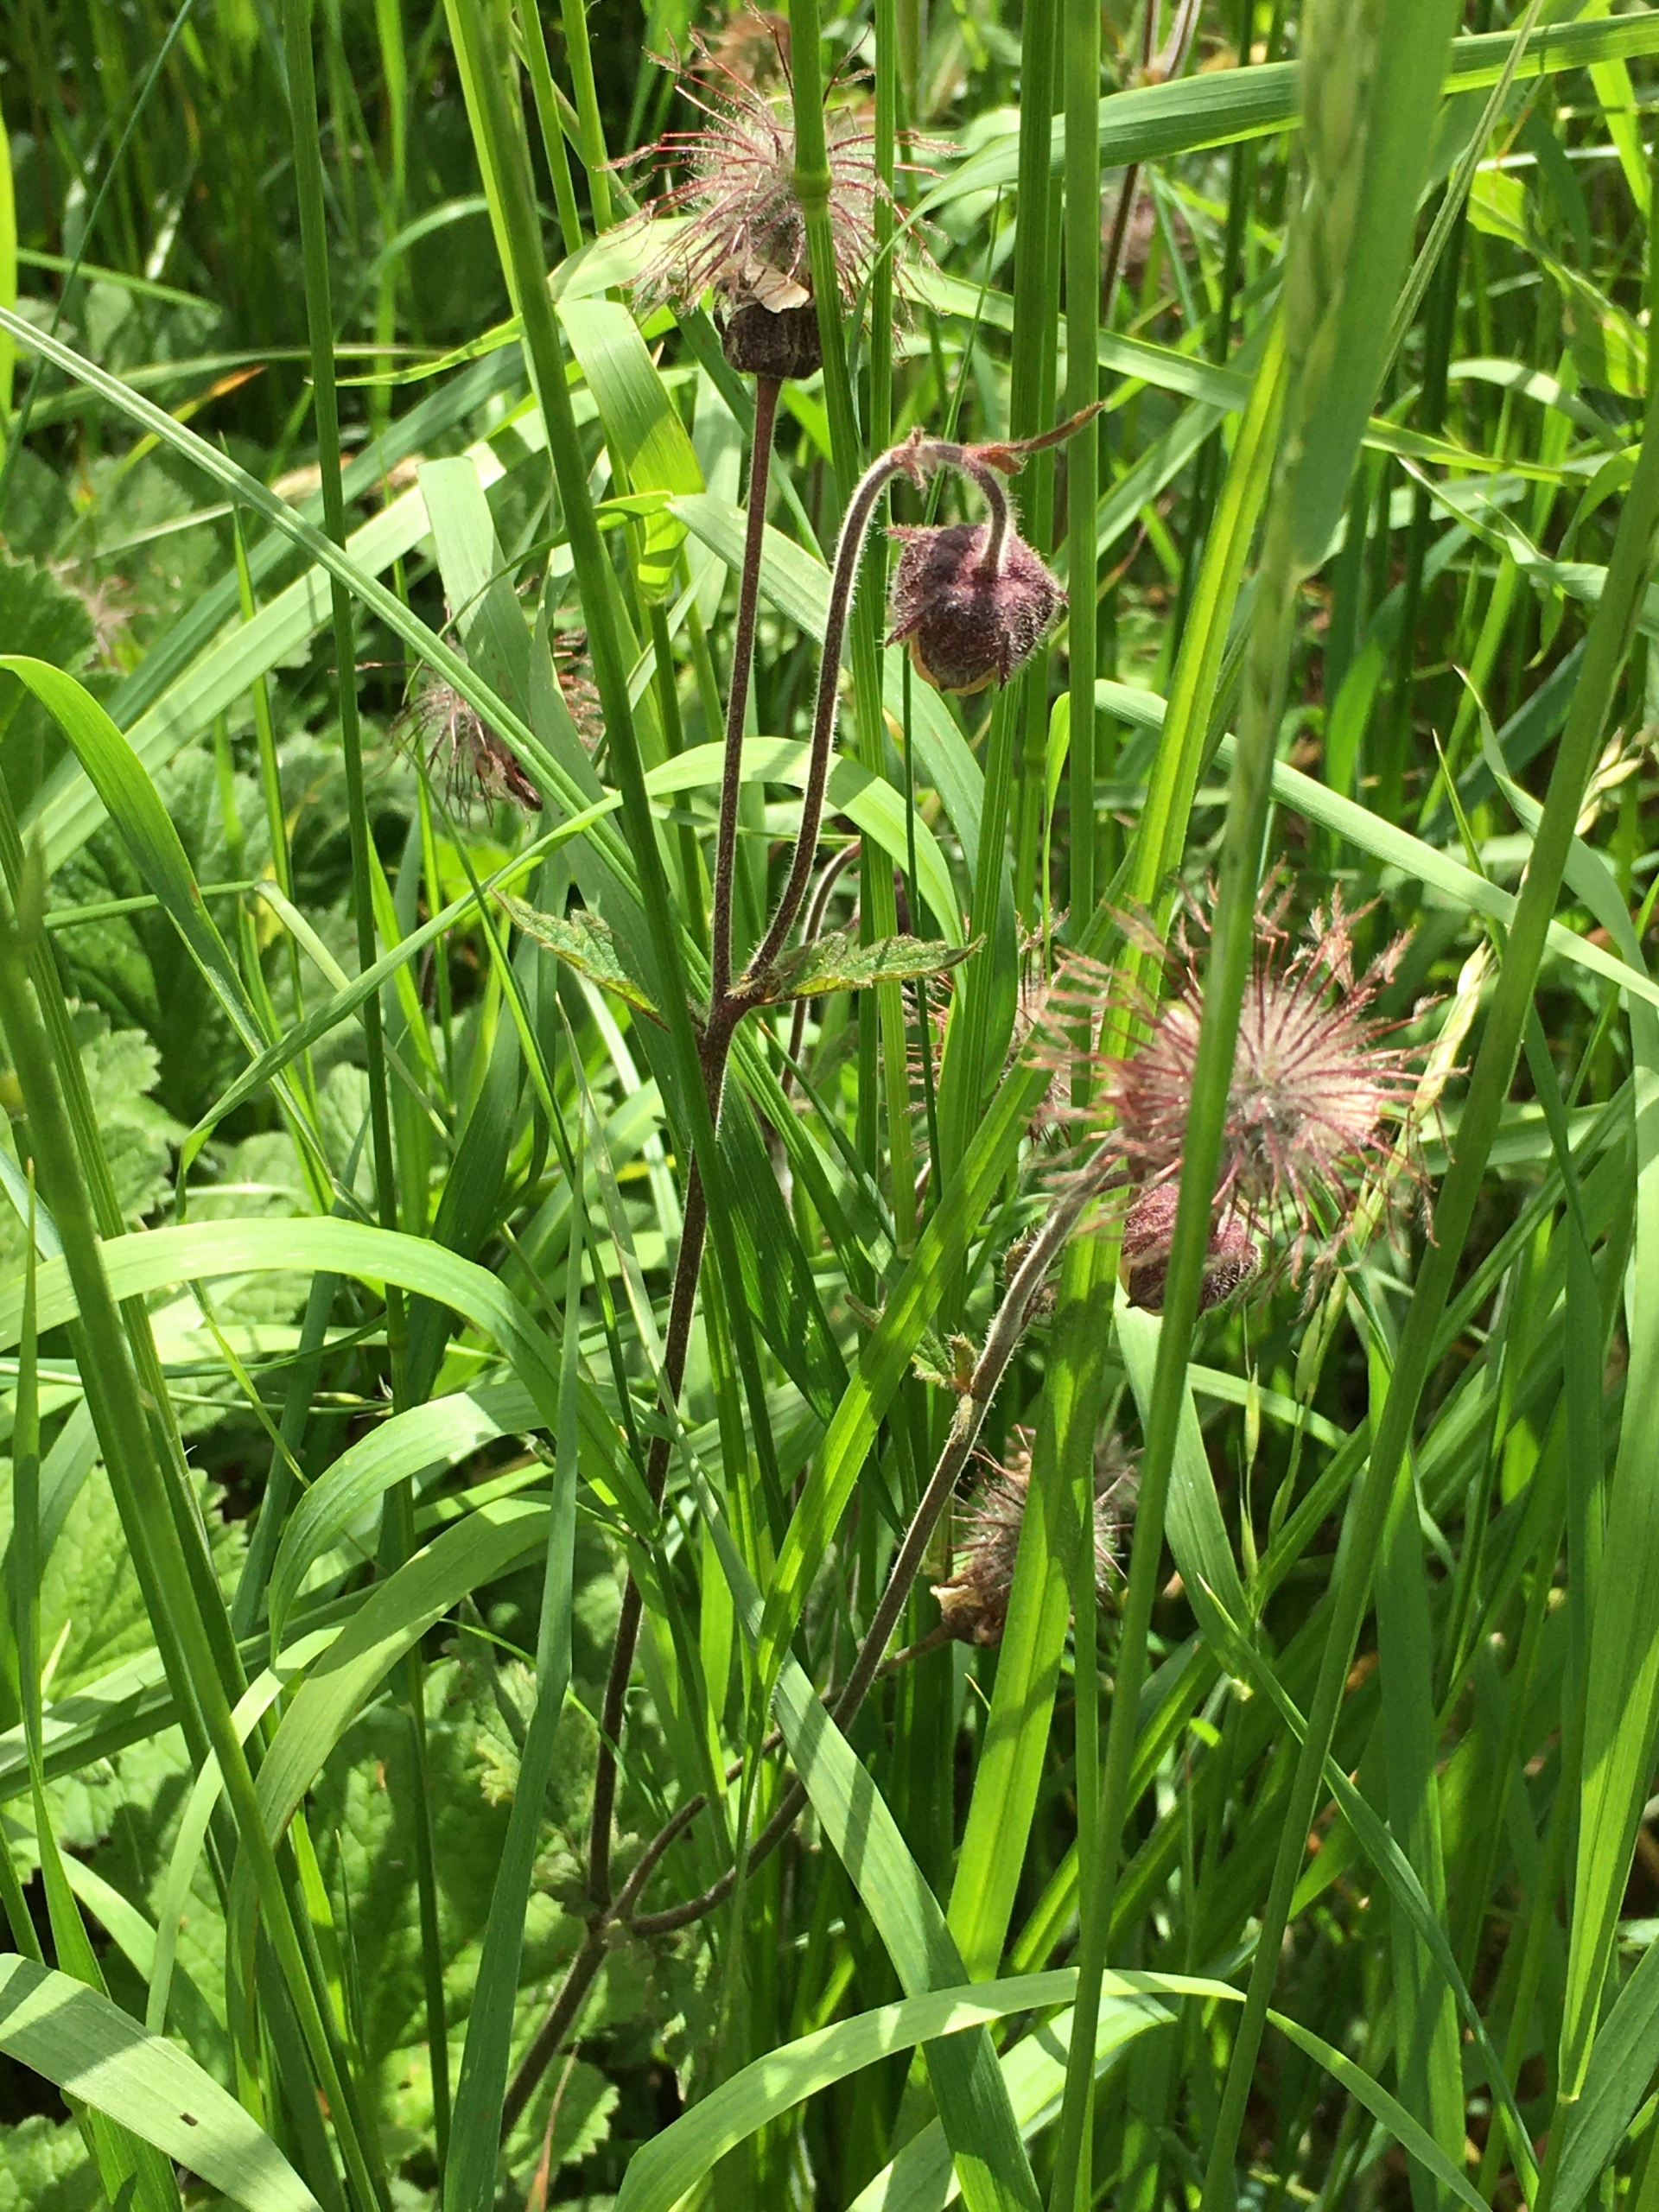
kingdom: Plantae
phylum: Tracheophyta
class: Magnoliopsida
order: Rosales
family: Rosaceae
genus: Geum
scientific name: Geum rivale
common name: Eng-nellikerod
